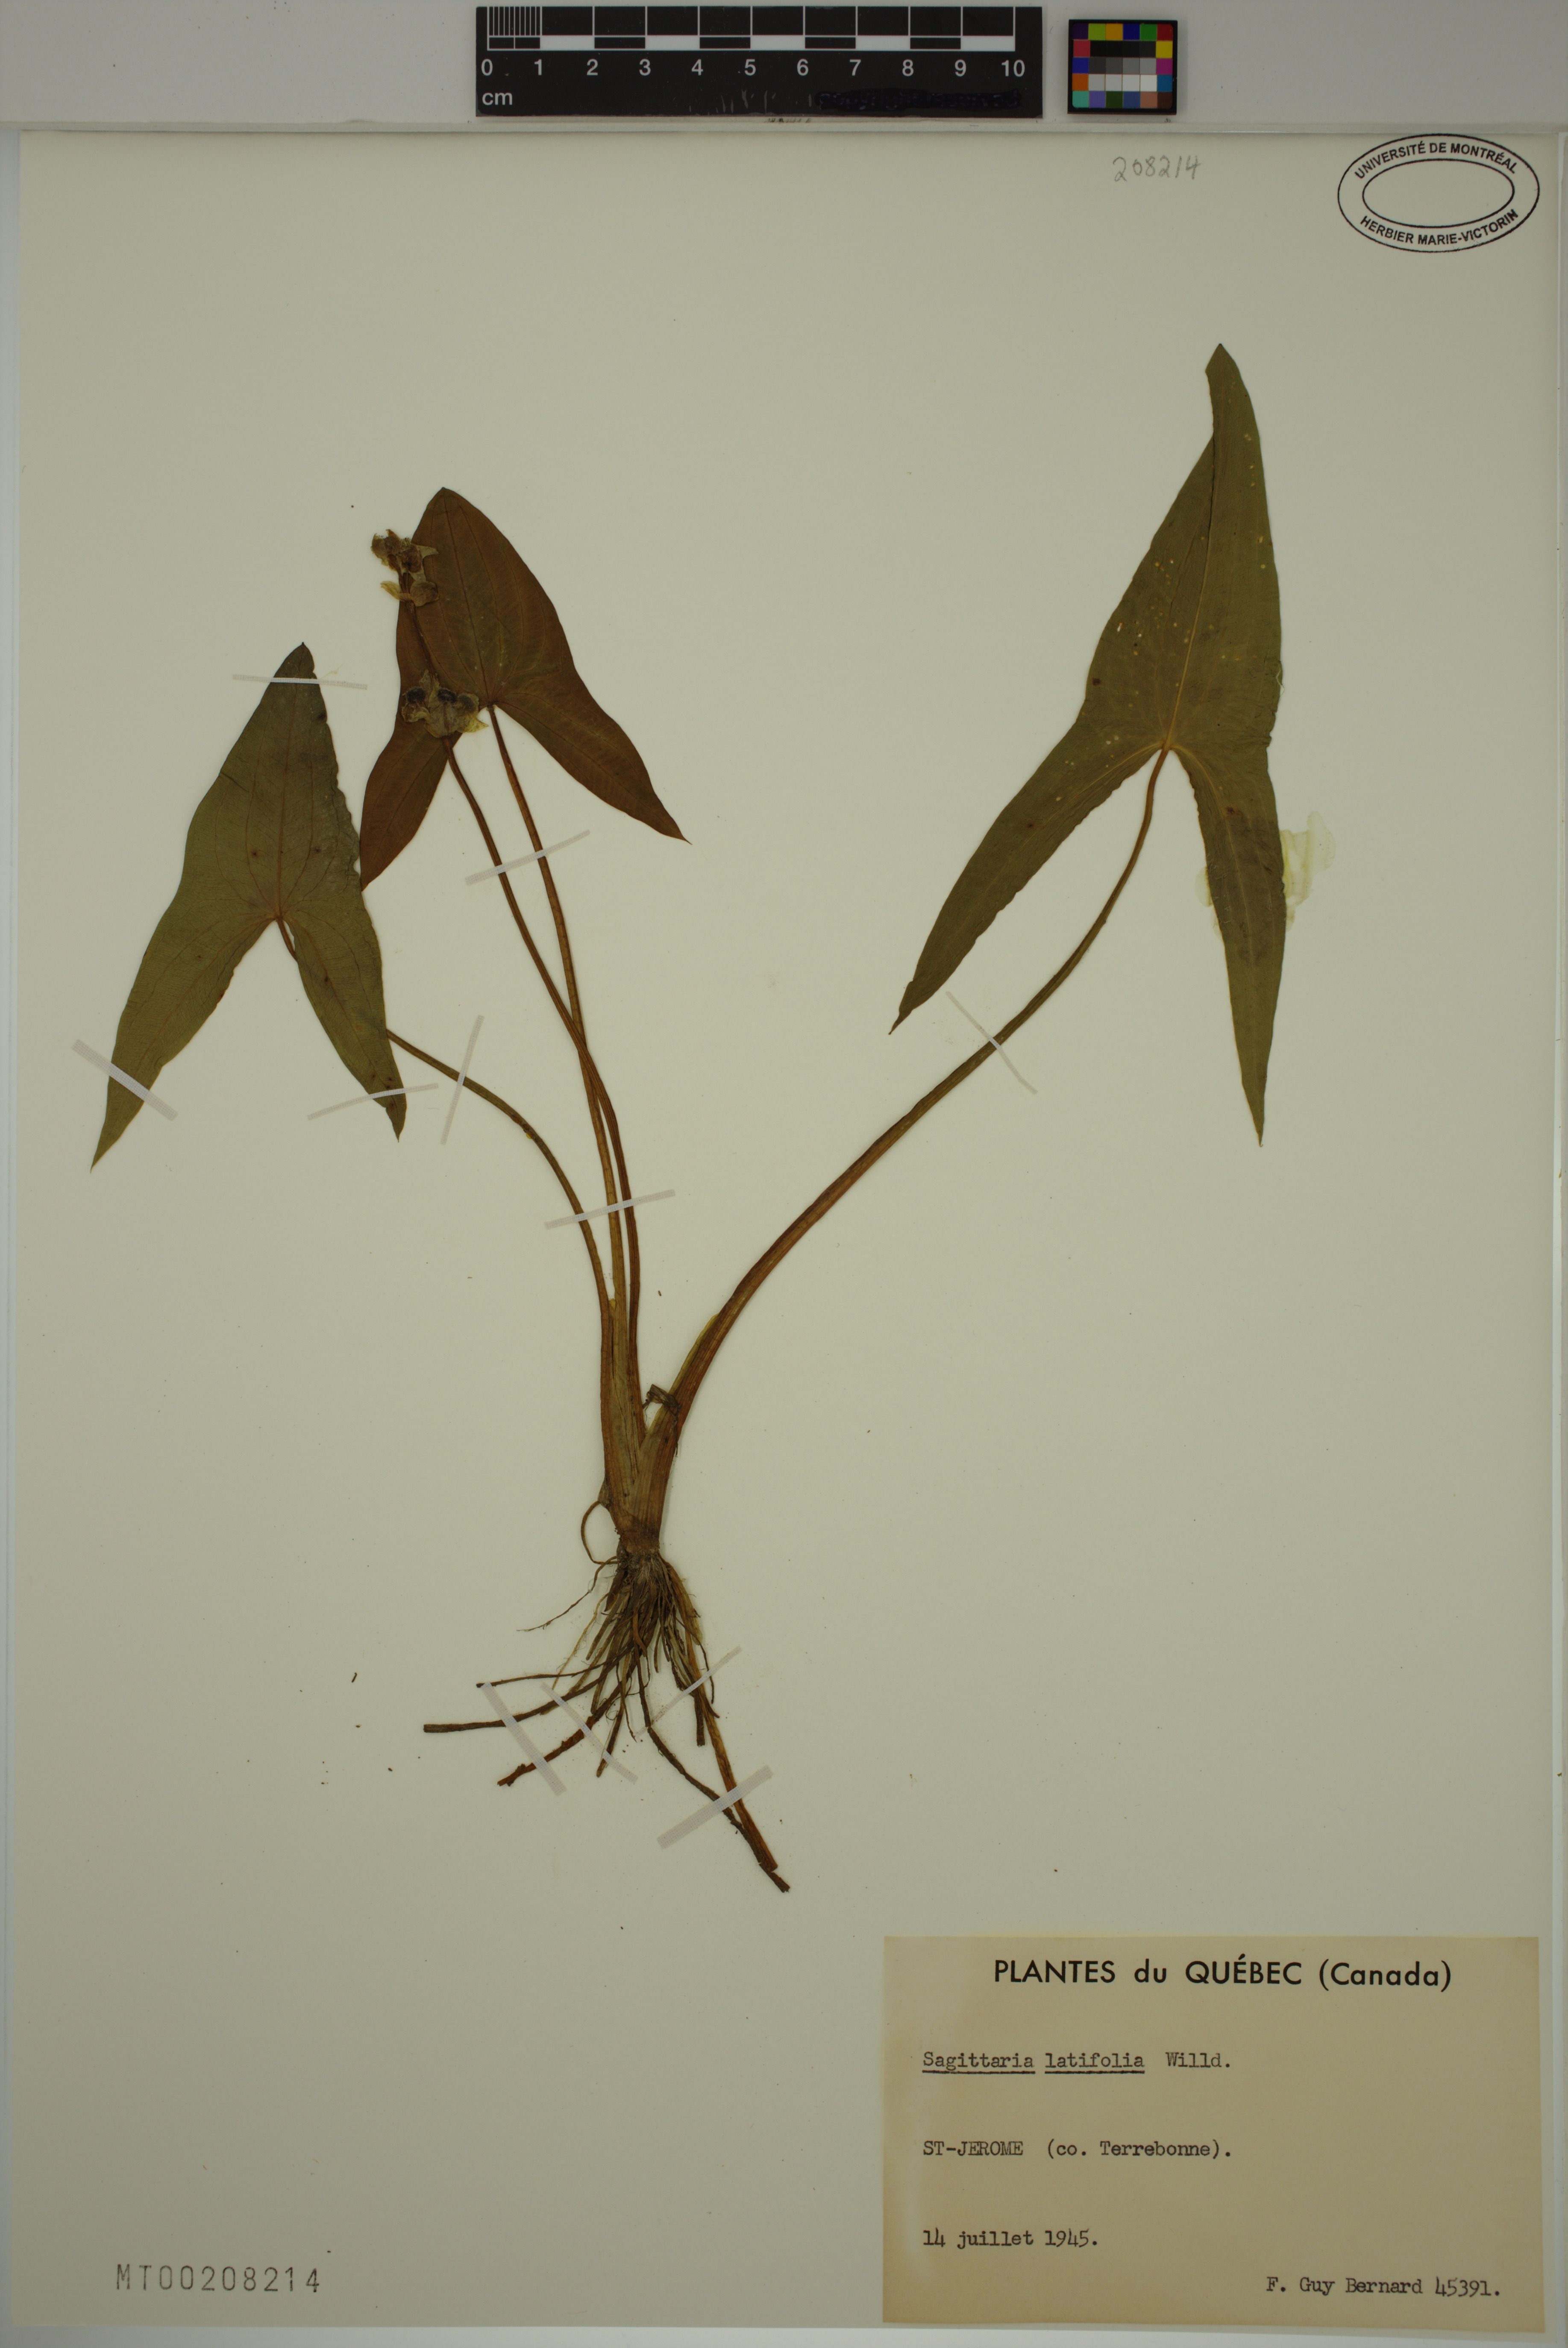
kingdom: Plantae
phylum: Tracheophyta
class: Liliopsida
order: Alismatales
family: Alismataceae
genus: Sagittaria
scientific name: Sagittaria latifolia
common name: Duck-potato
